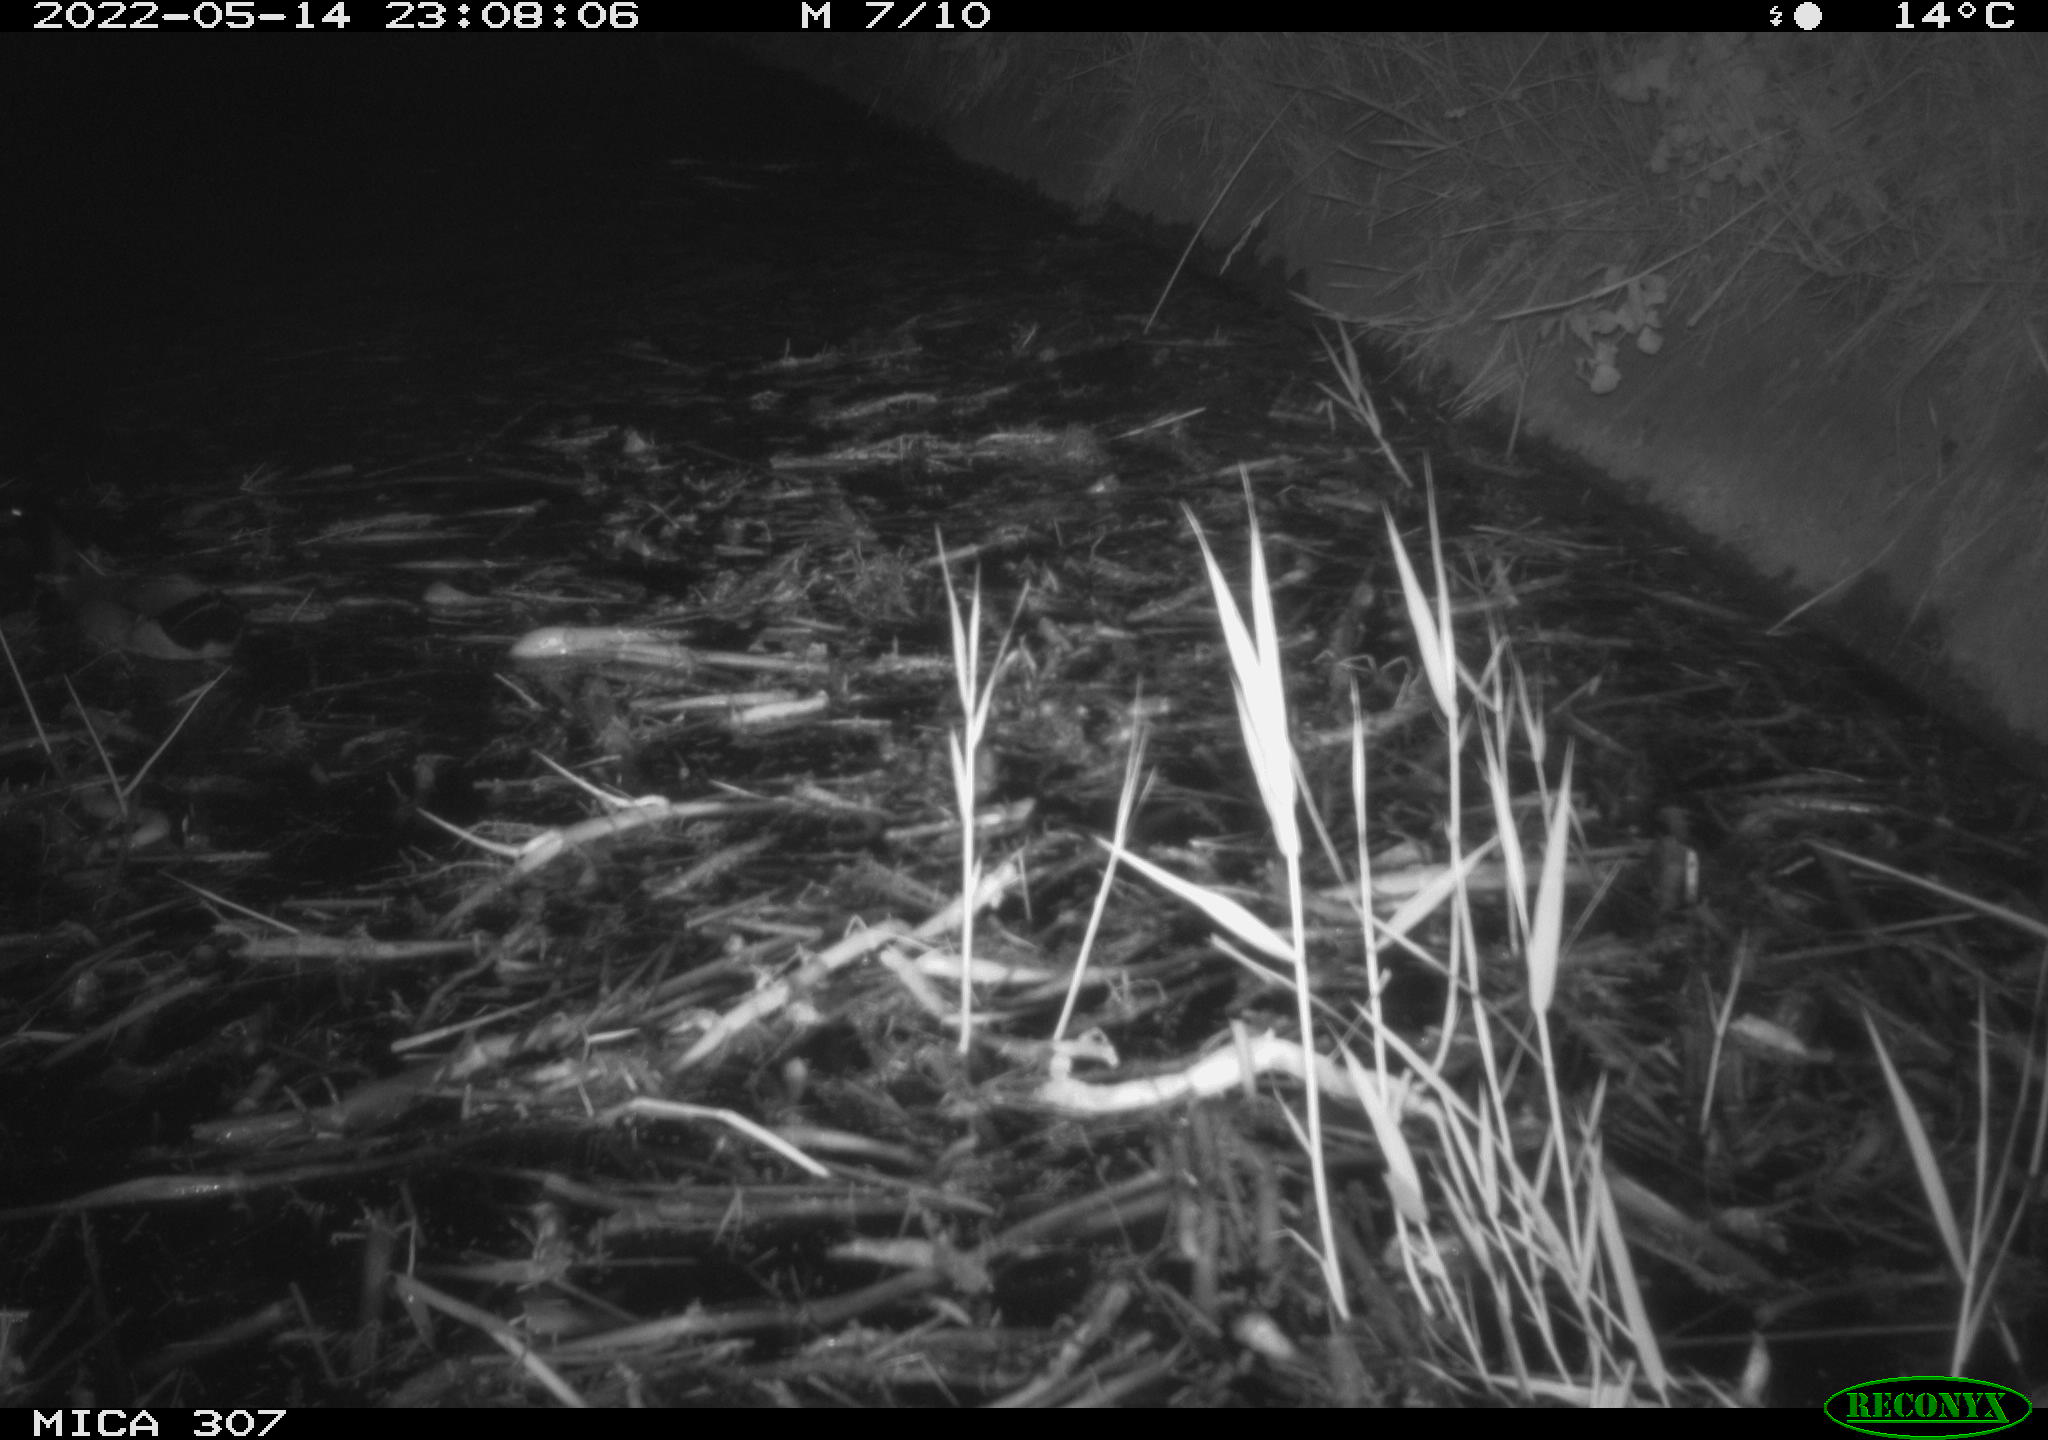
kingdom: Animalia
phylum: Chordata
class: Aves
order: Anseriformes
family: Anatidae
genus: Anas
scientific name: Anas platyrhynchos
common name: Mallard
